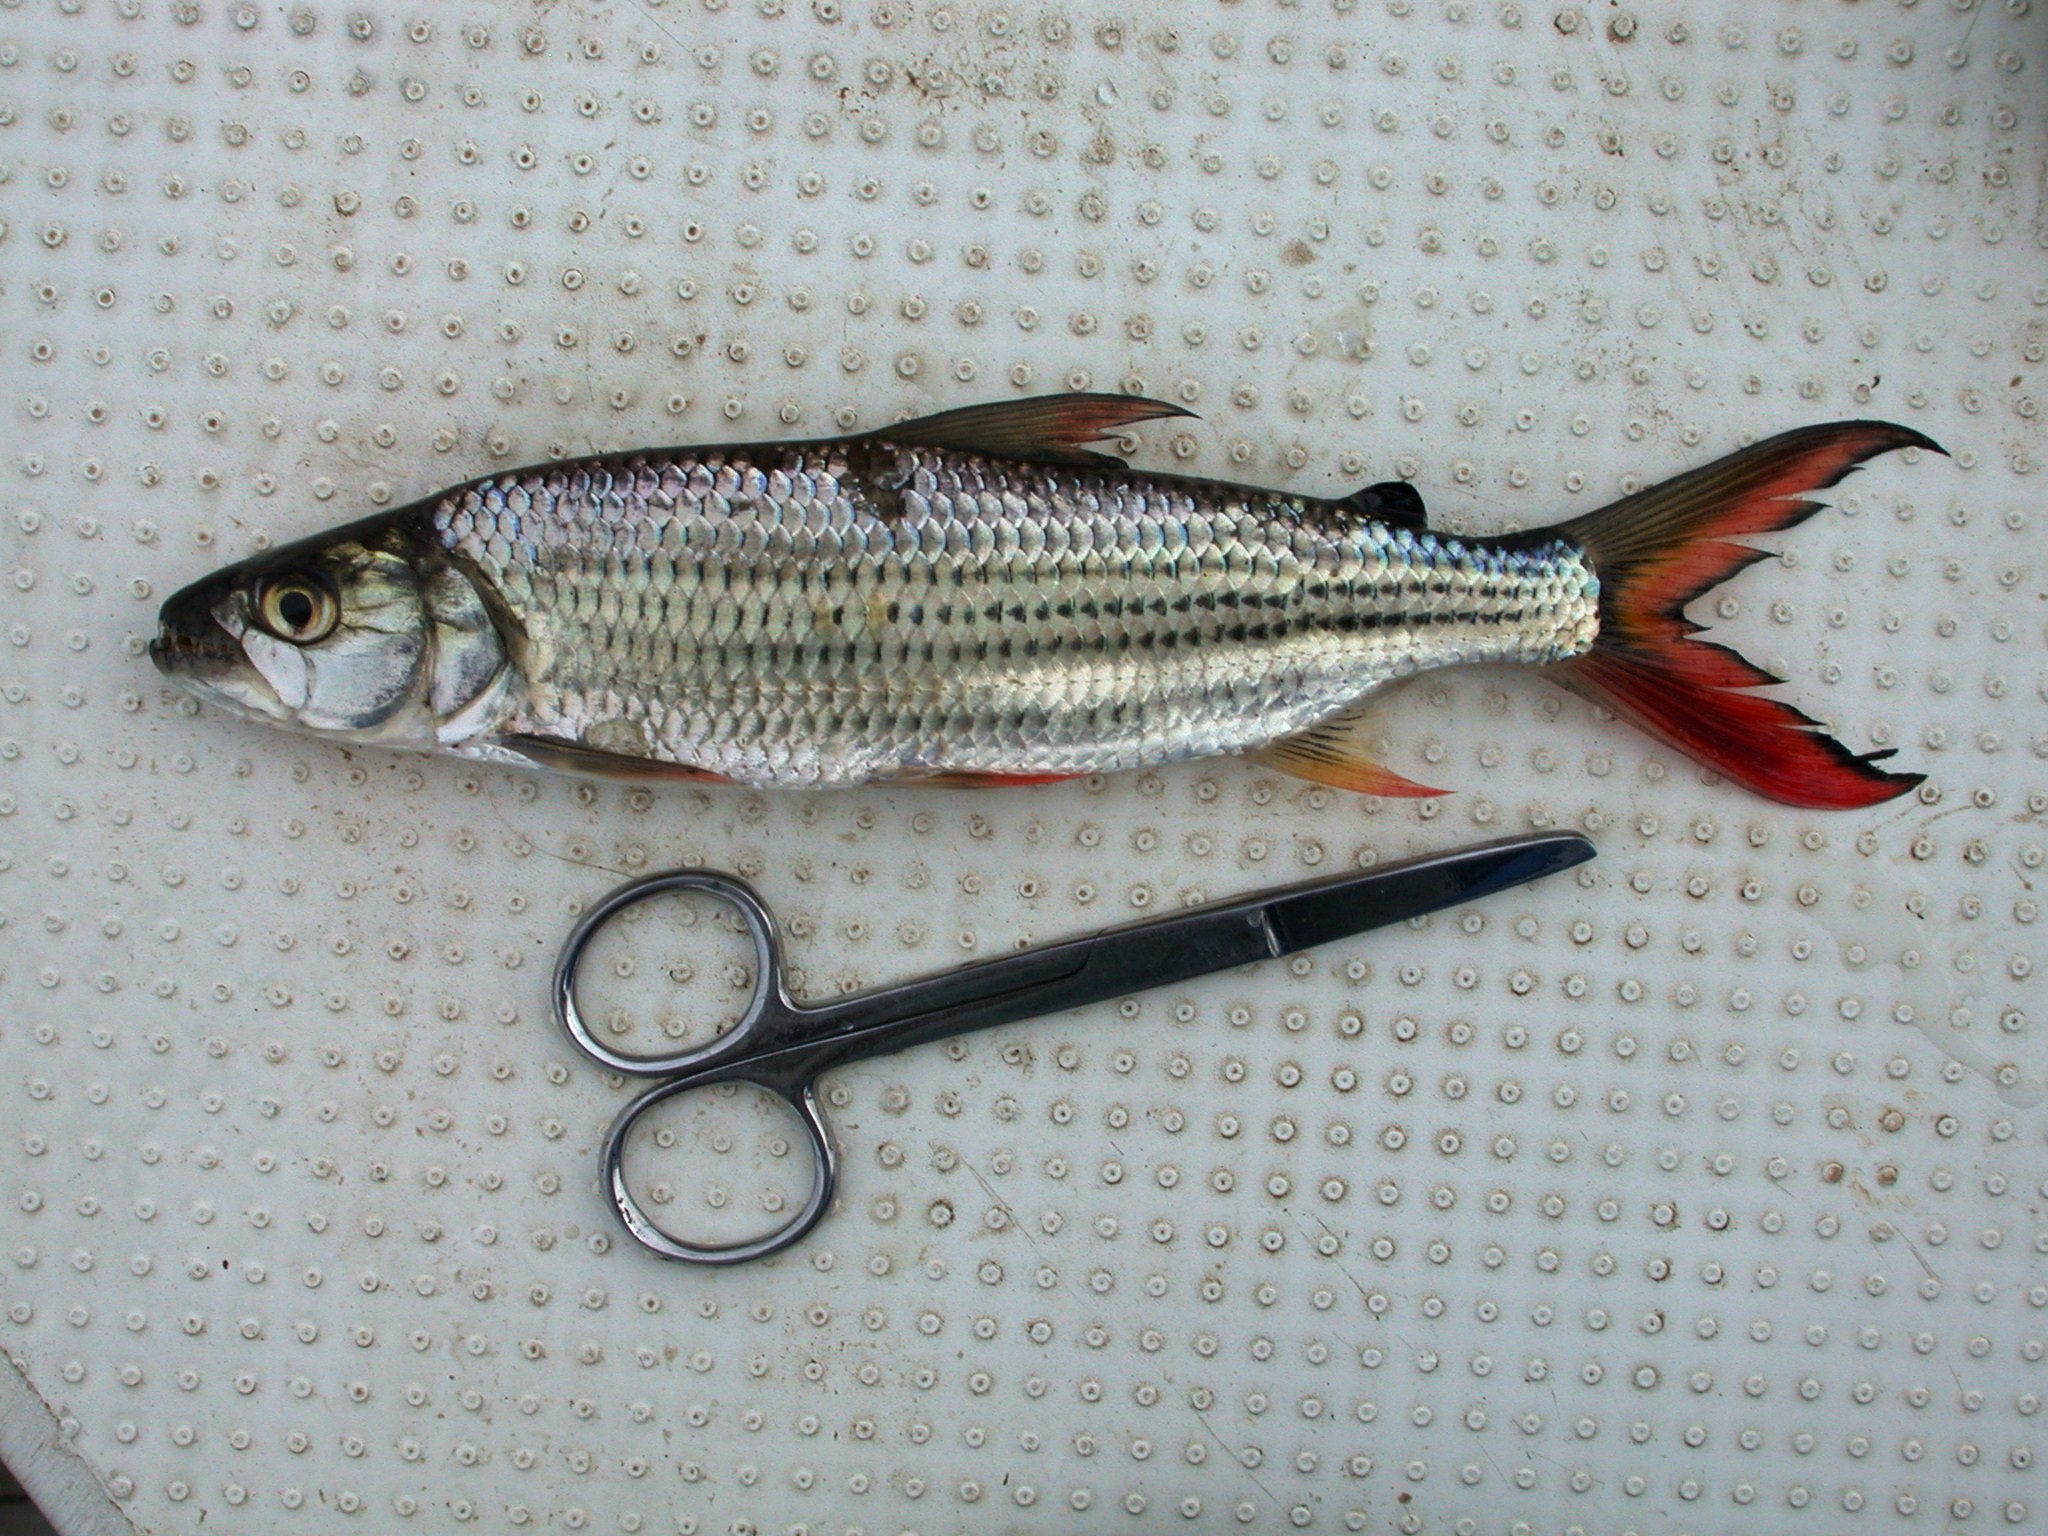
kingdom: Animalia
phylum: Chordata
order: Characiformes
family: Alestidae
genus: Hydrocynus
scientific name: Hydrocynus vittatus
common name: Tigerfish
